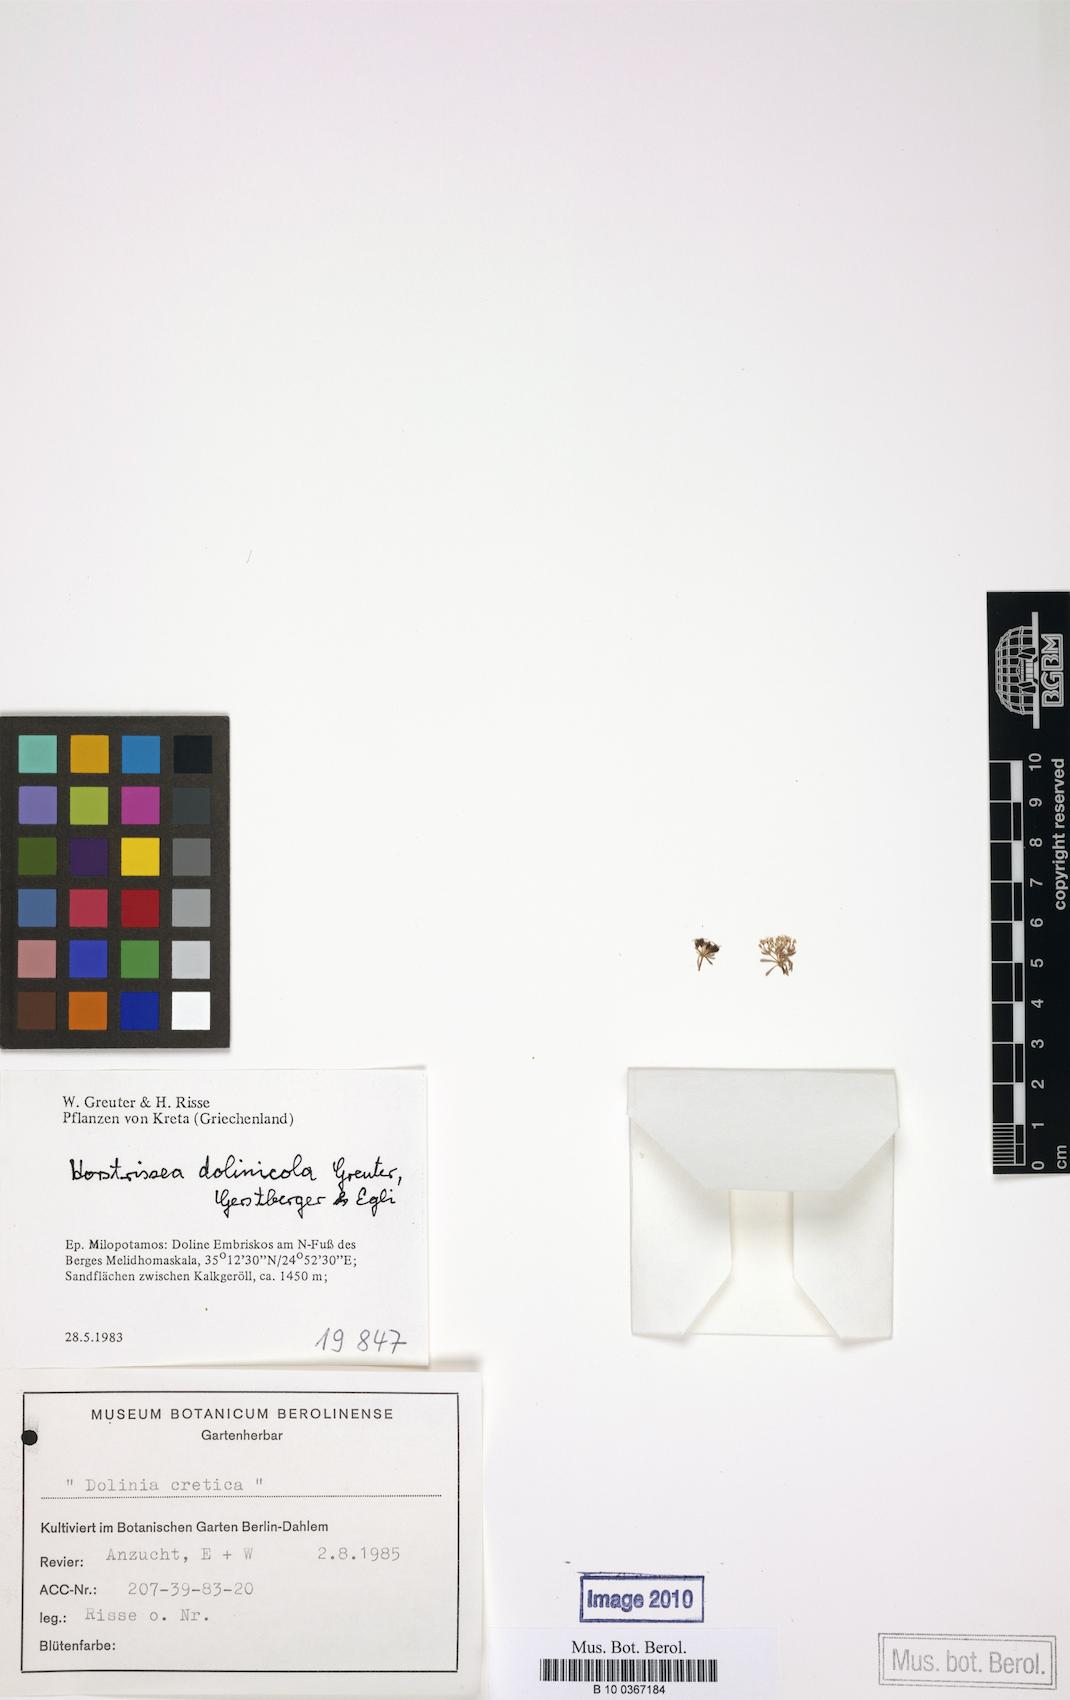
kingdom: Plantae
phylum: Tracheophyta
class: Magnoliopsida
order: Apiales
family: Apiaceae
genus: Horstrissea
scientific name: Horstrissea dolinicola
